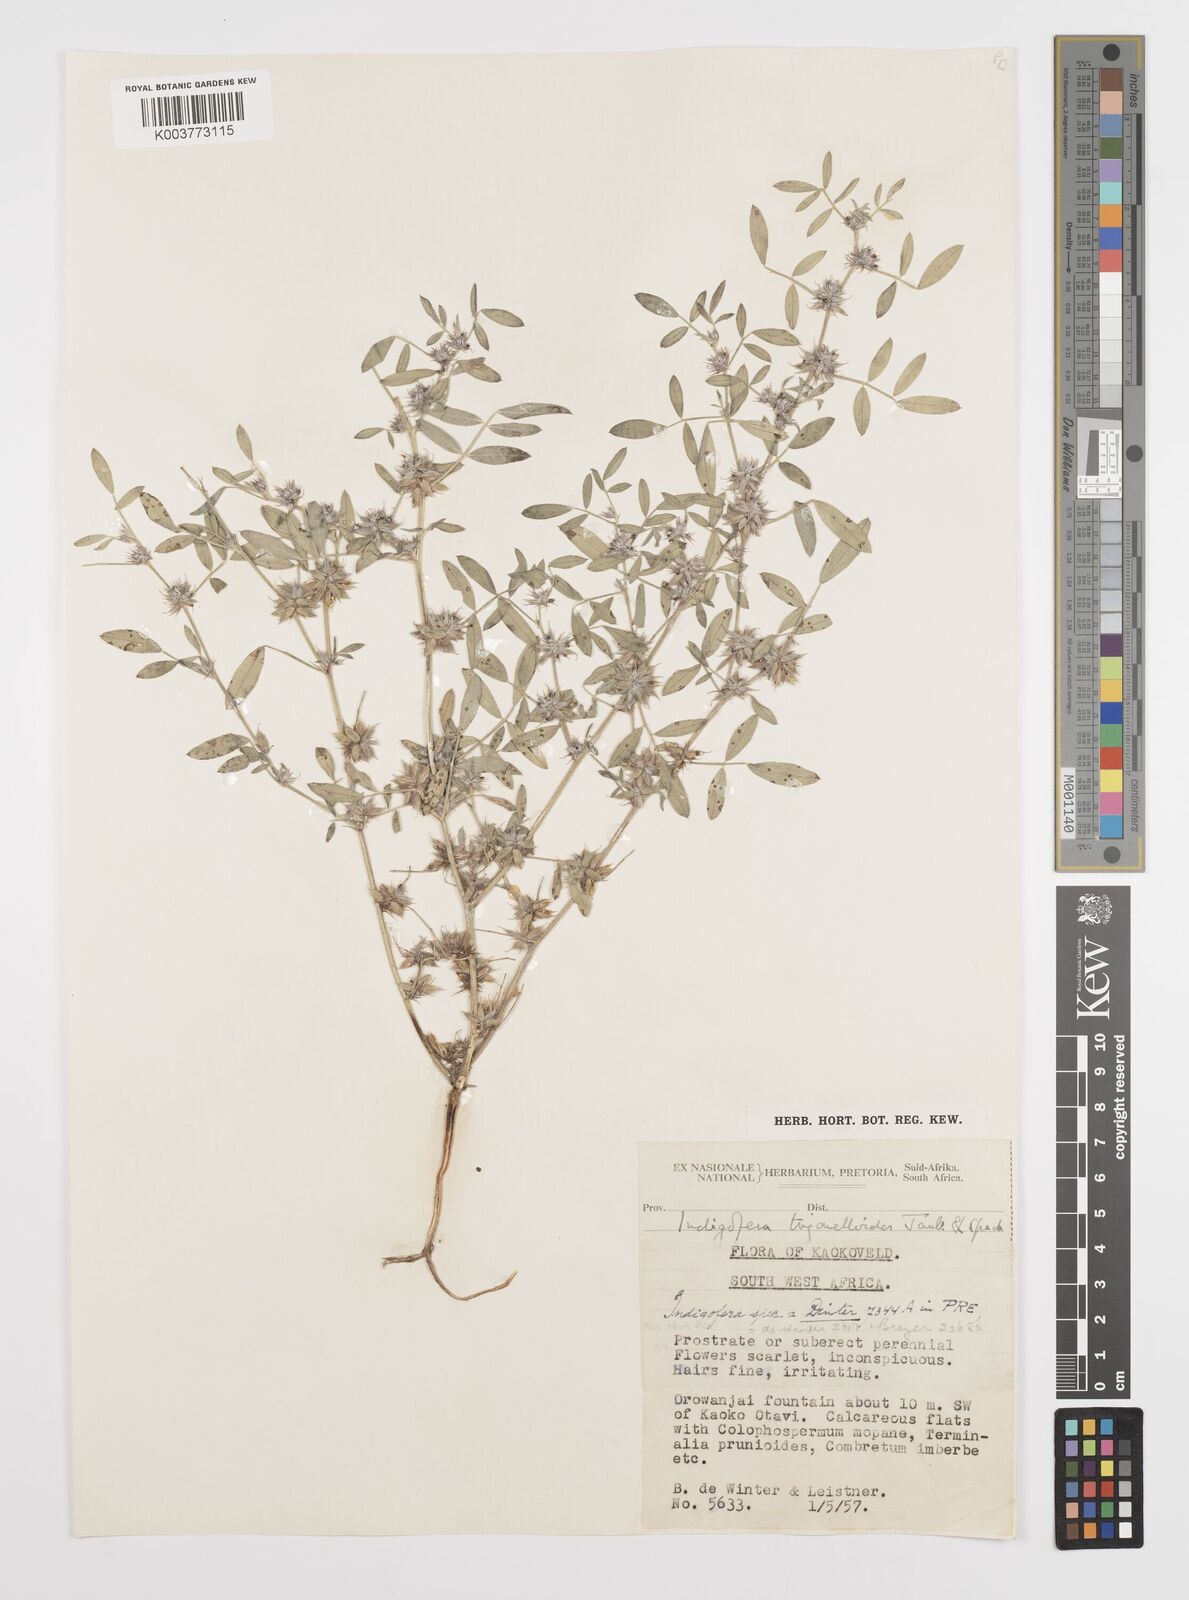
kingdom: Plantae
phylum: Tracheophyta
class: Magnoliopsida
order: Fabales
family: Fabaceae
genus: Indigofera
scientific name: Indigofera trigonelloides
